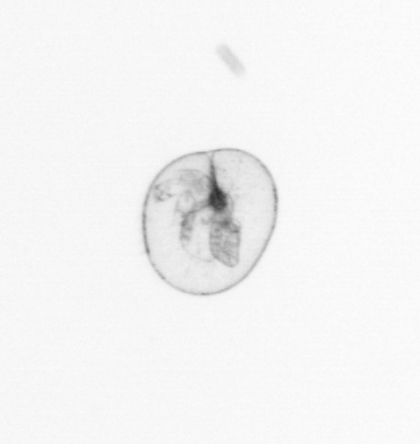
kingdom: Chromista
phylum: Myzozoa
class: Dinophyceae
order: Noctilucales
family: Noctilucaceae
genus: Noctiluca
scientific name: Noctiluca scintillans
